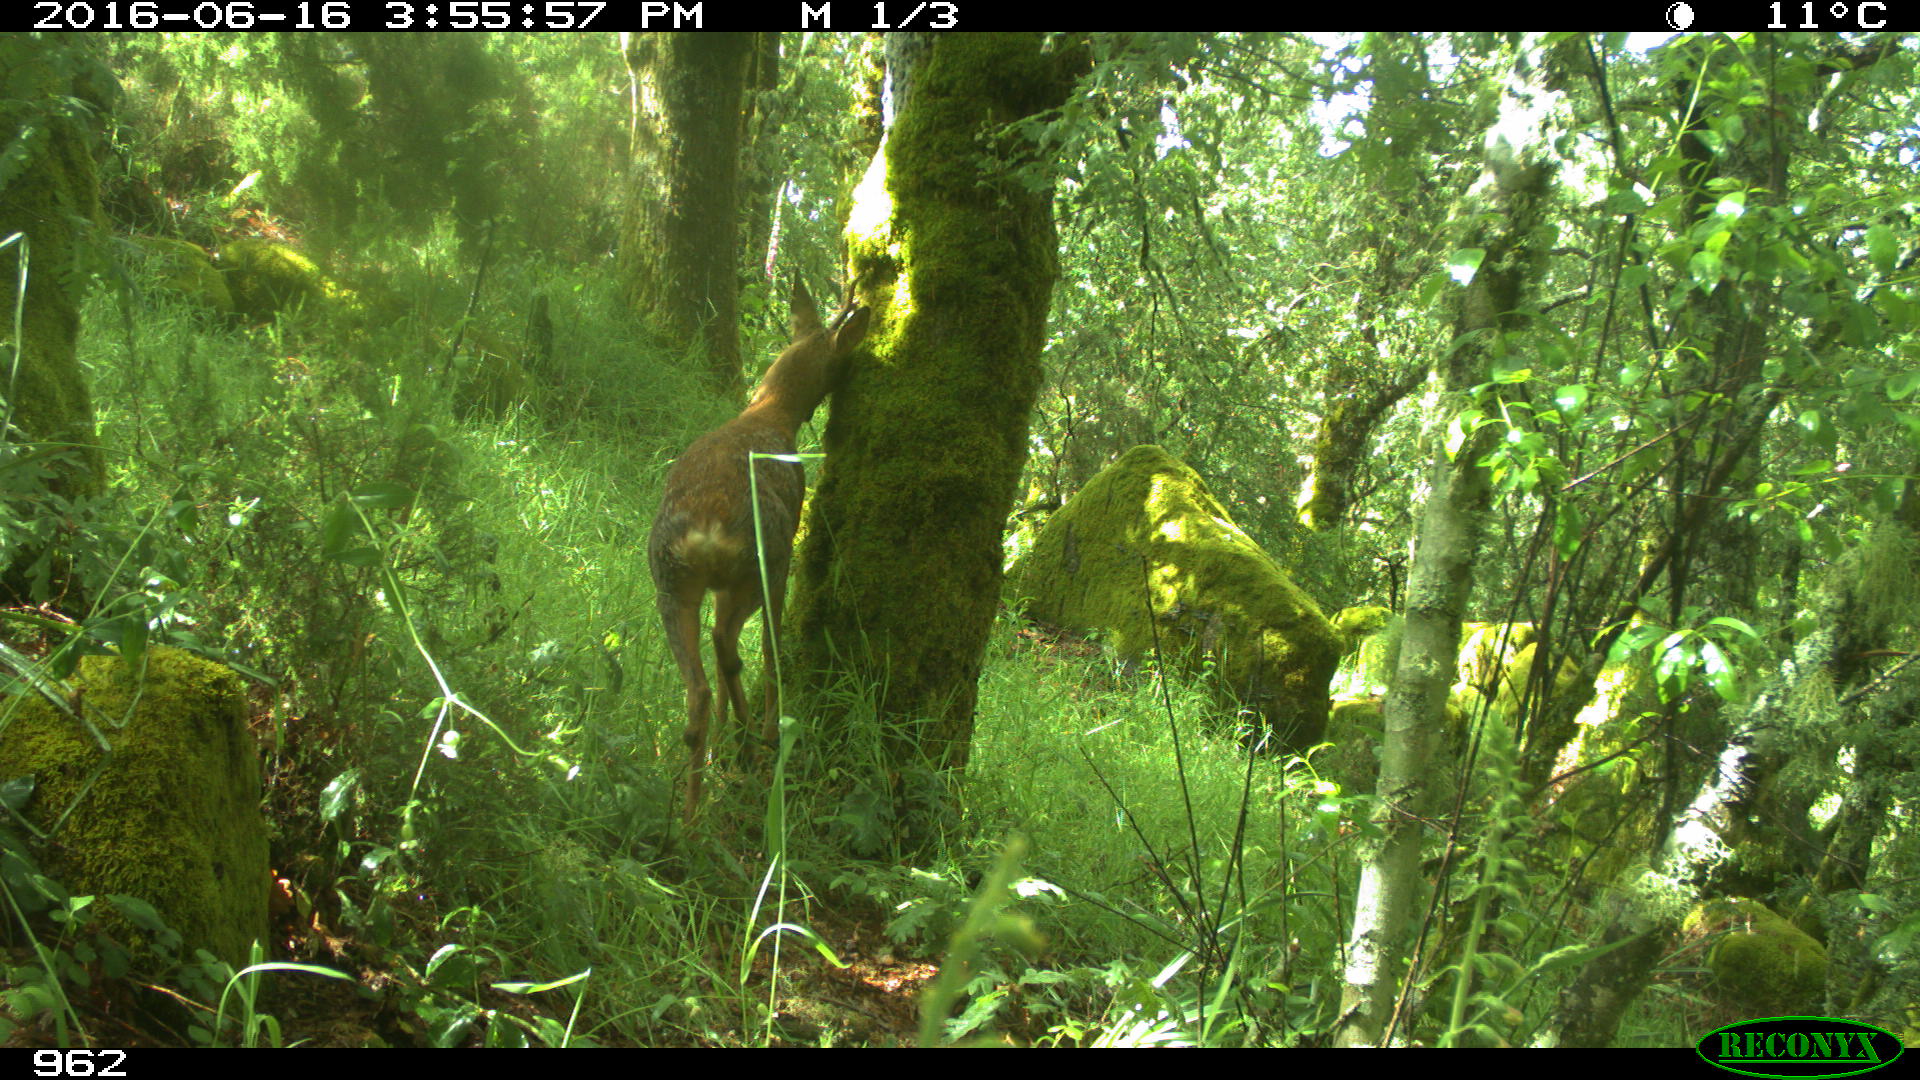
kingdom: Animalia
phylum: Chordata
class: Mammalia
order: Artiodactyla
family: Cervidae
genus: Capreolus
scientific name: Capreolus capreolus
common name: Western roe deer
